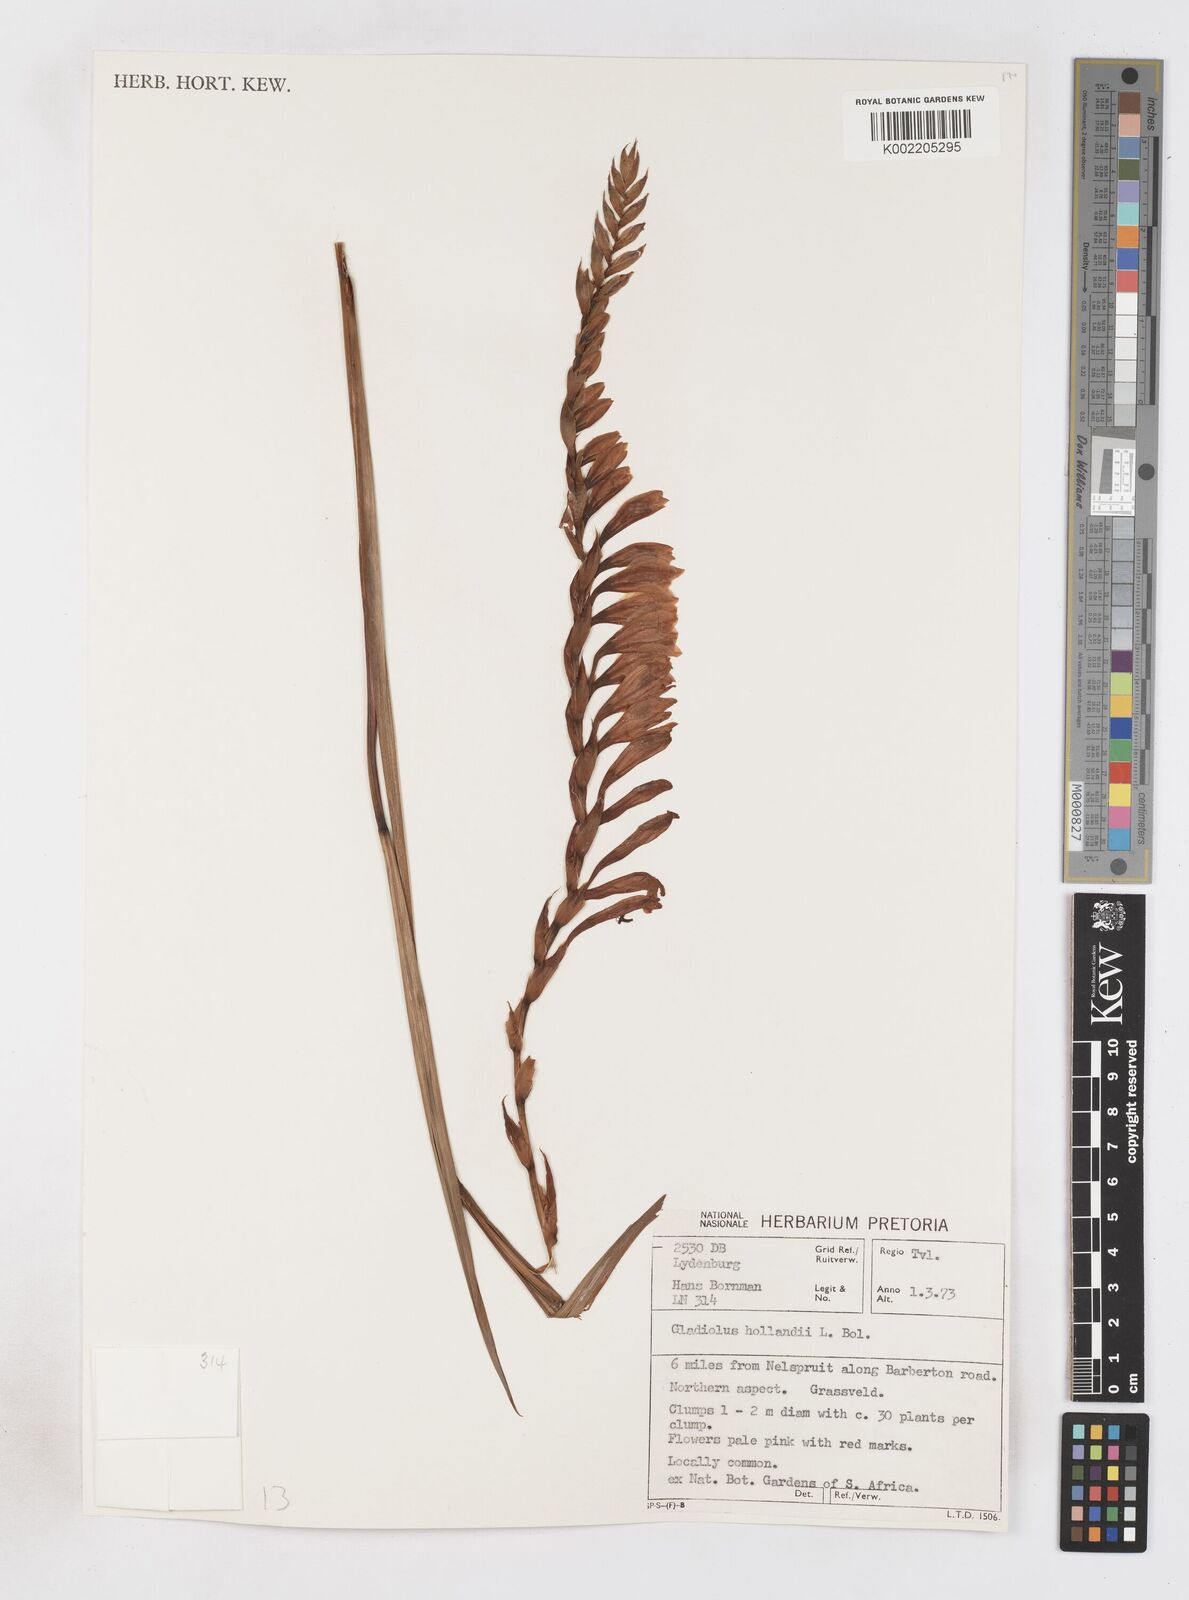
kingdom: Plantae
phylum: Tracheophyta
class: Liliopsida
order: Asparagales
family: Iridaceae
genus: Gladiolus
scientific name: Gladiolus hollandii
